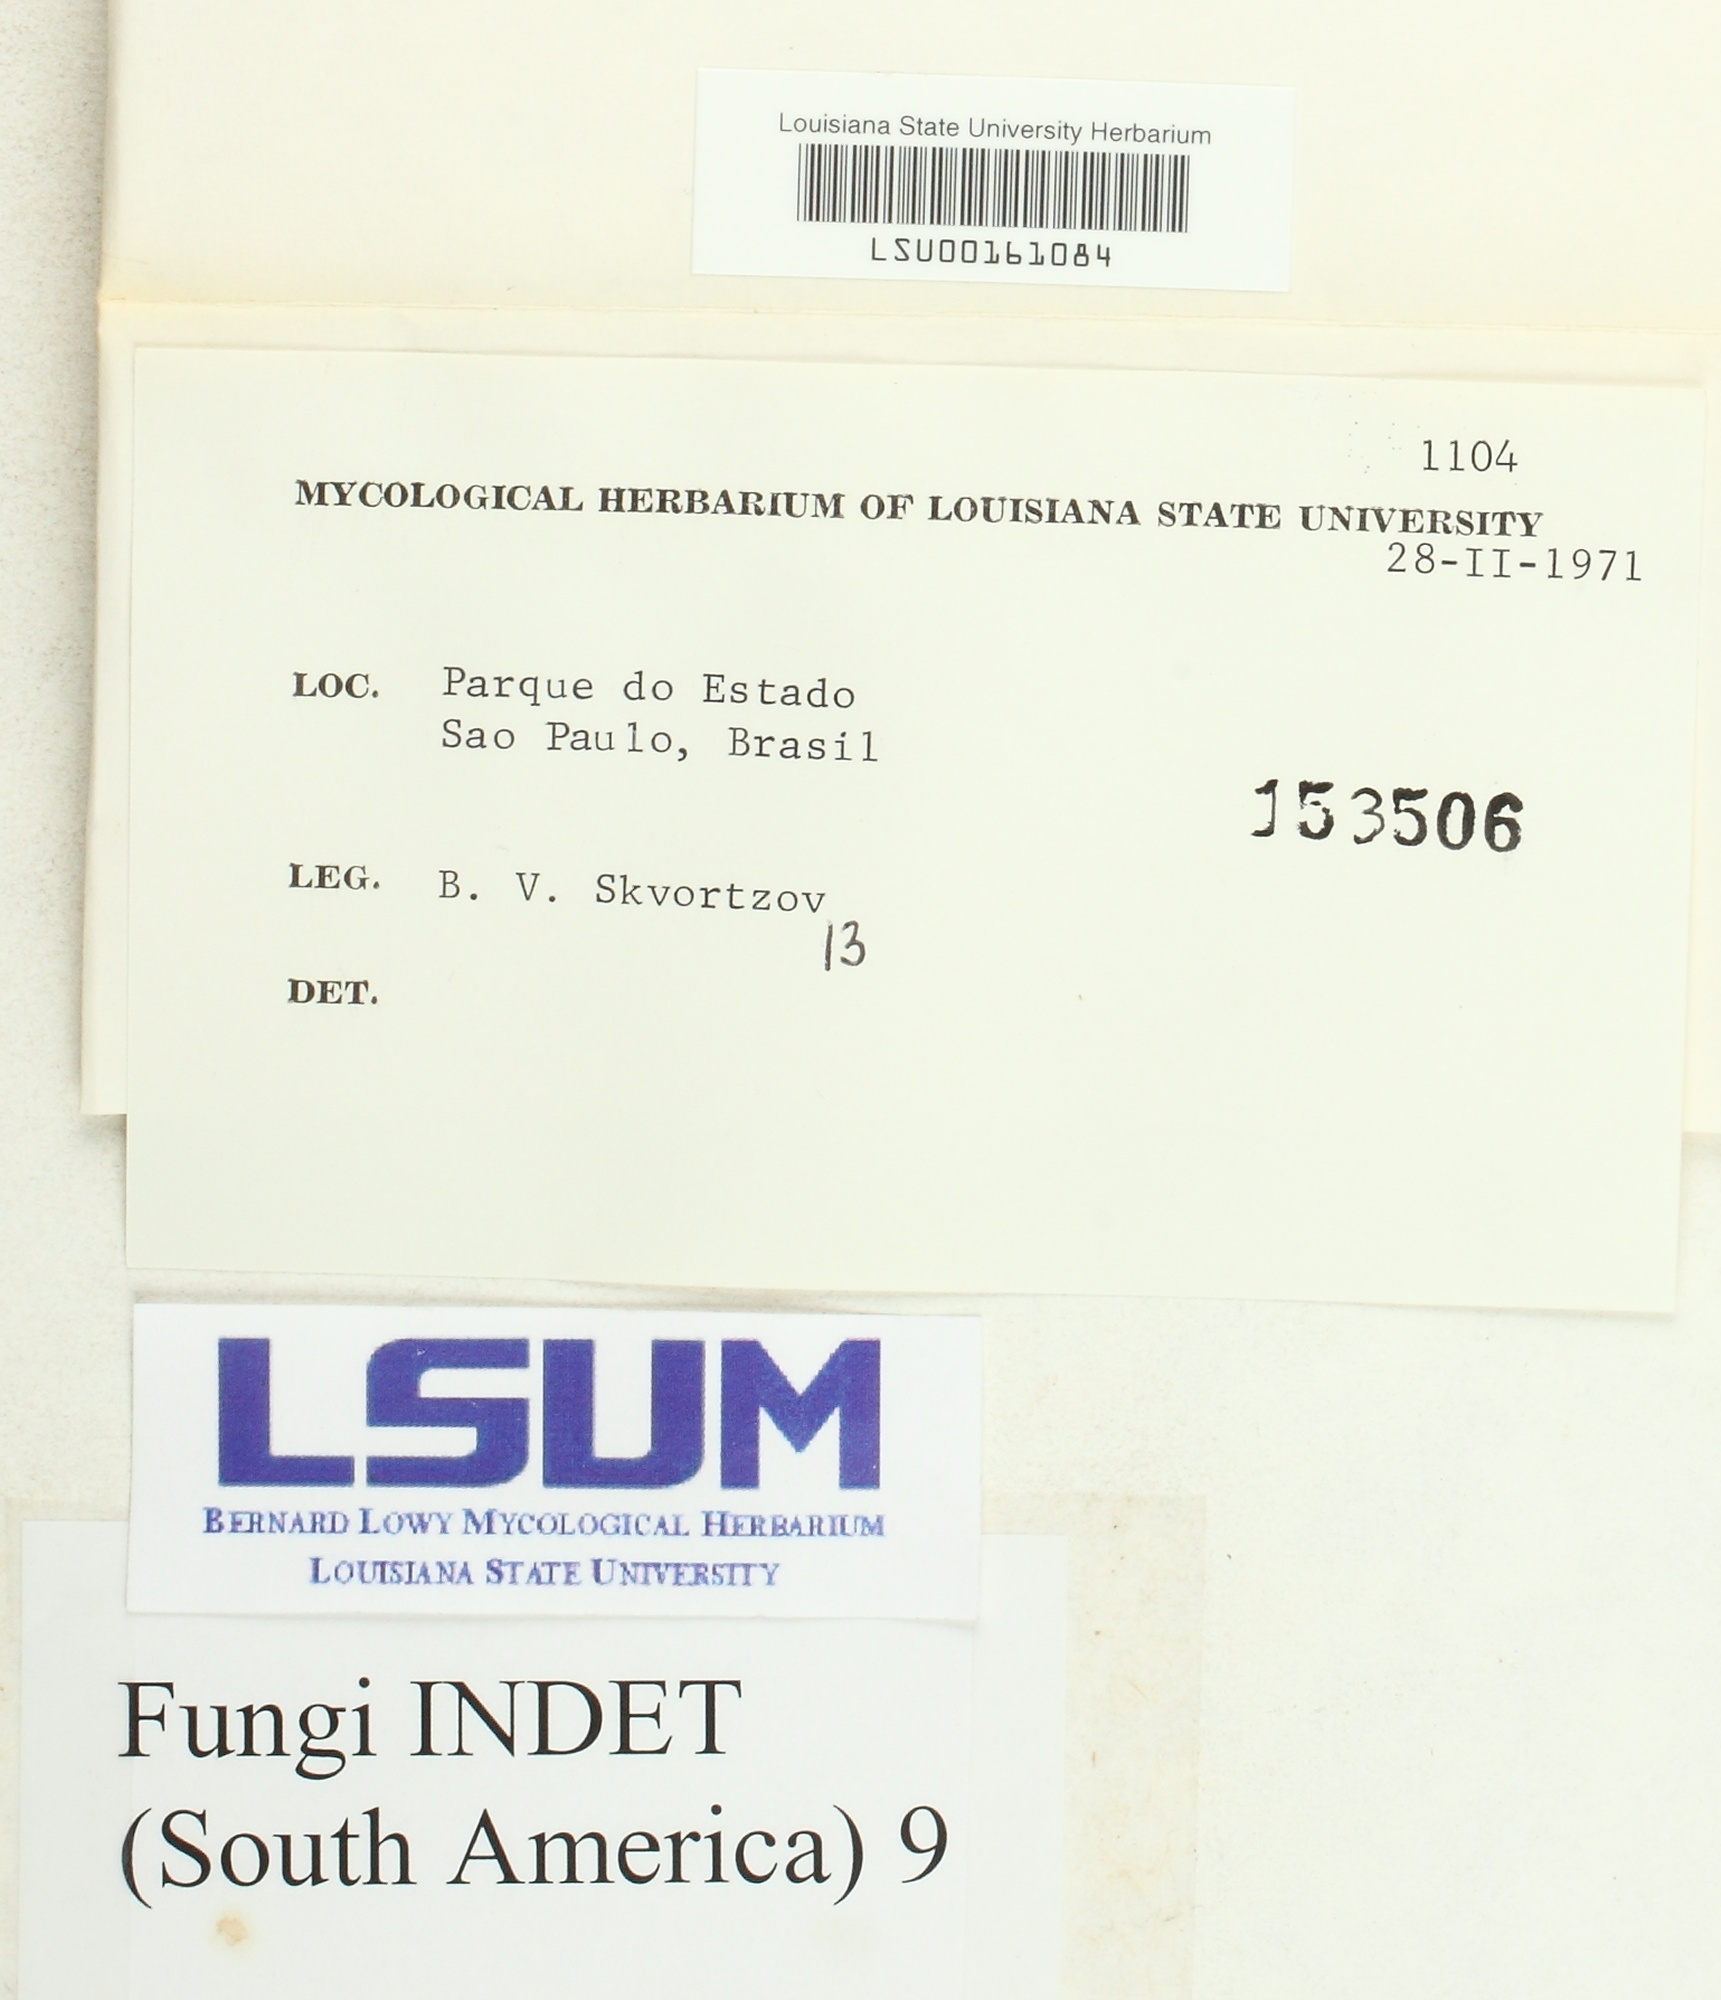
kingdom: Fungi
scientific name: Fungi
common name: Fungi
